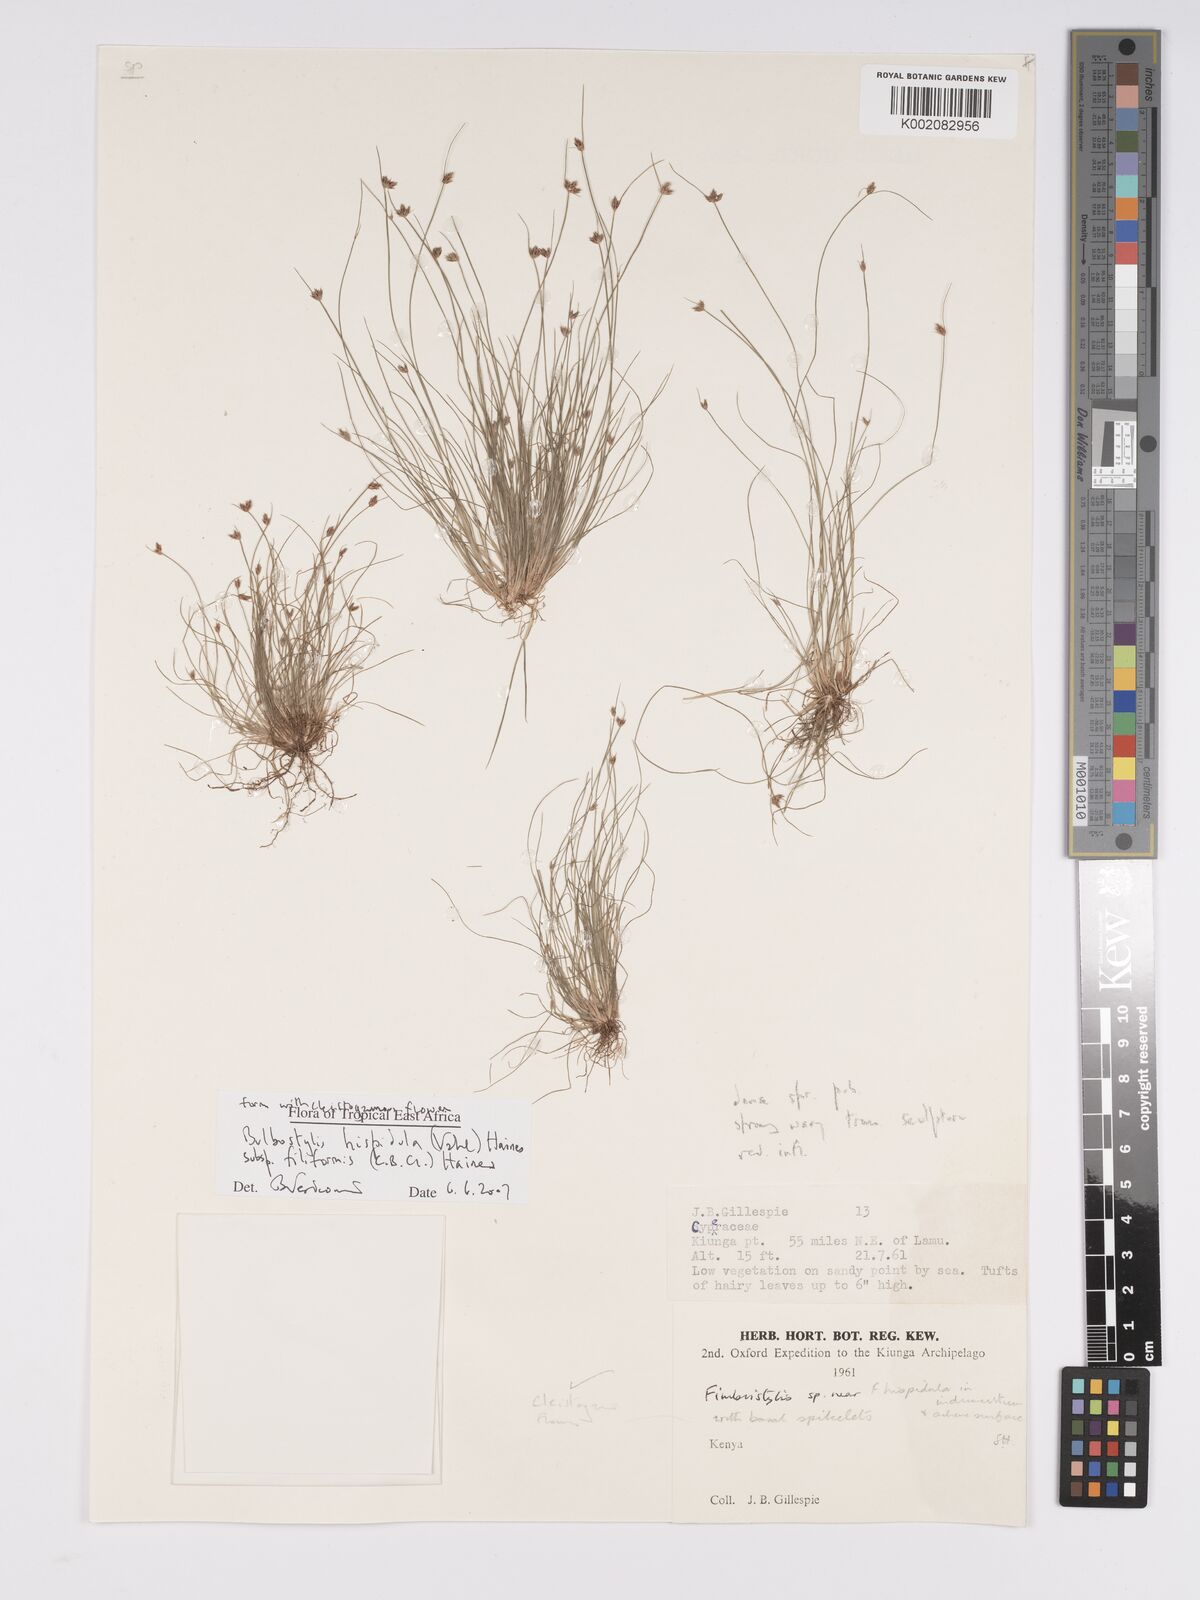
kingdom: Plantae
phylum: Tracheophyta
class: Liliopsida
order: Poales
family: Cyperaceae
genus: Bulbostylis
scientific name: Bulbostylis hispidula
